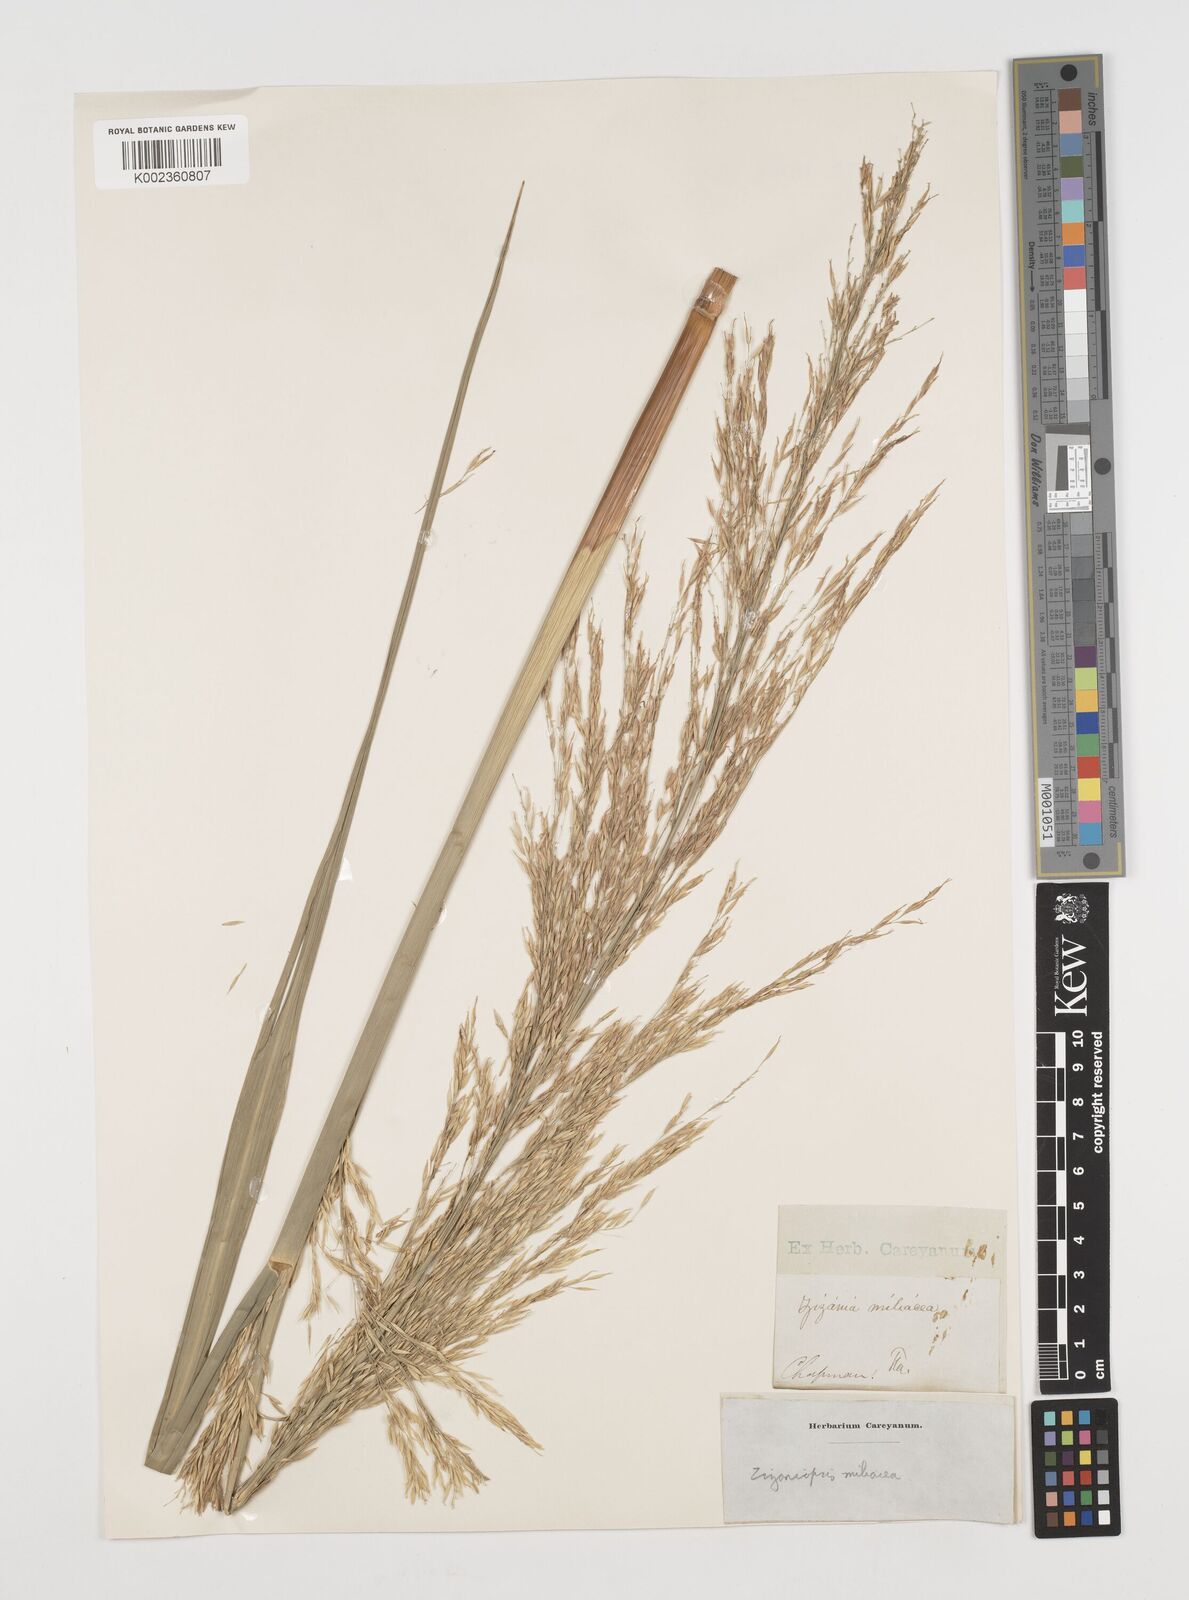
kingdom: Plantae
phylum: Tracheophyta
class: Liliopsida
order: Poales
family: Poaceae
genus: Zizaniopsis
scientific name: Zizaniopsis miliacea
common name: Giant-cutgrass
